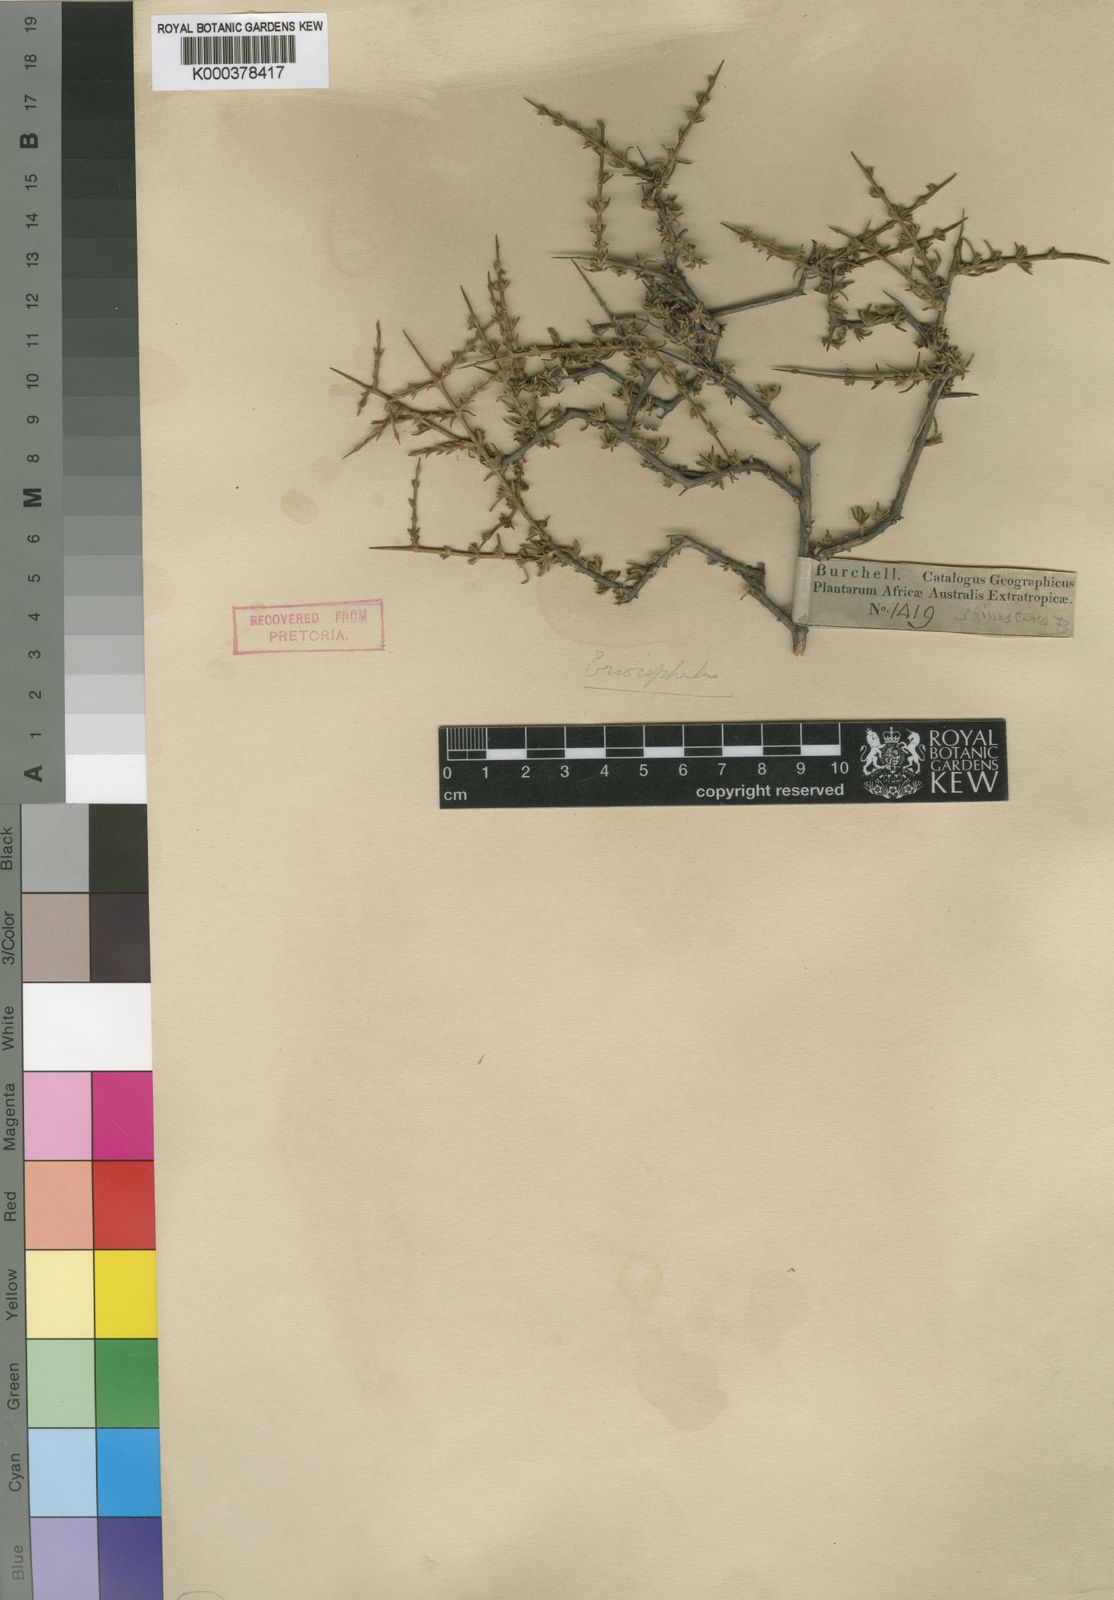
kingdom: Plantae
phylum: Tracheophyta
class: Magnoliopsida
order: Asterales
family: Asteraceae
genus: Eriocephalus
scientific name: Eriocephalus spinescens
